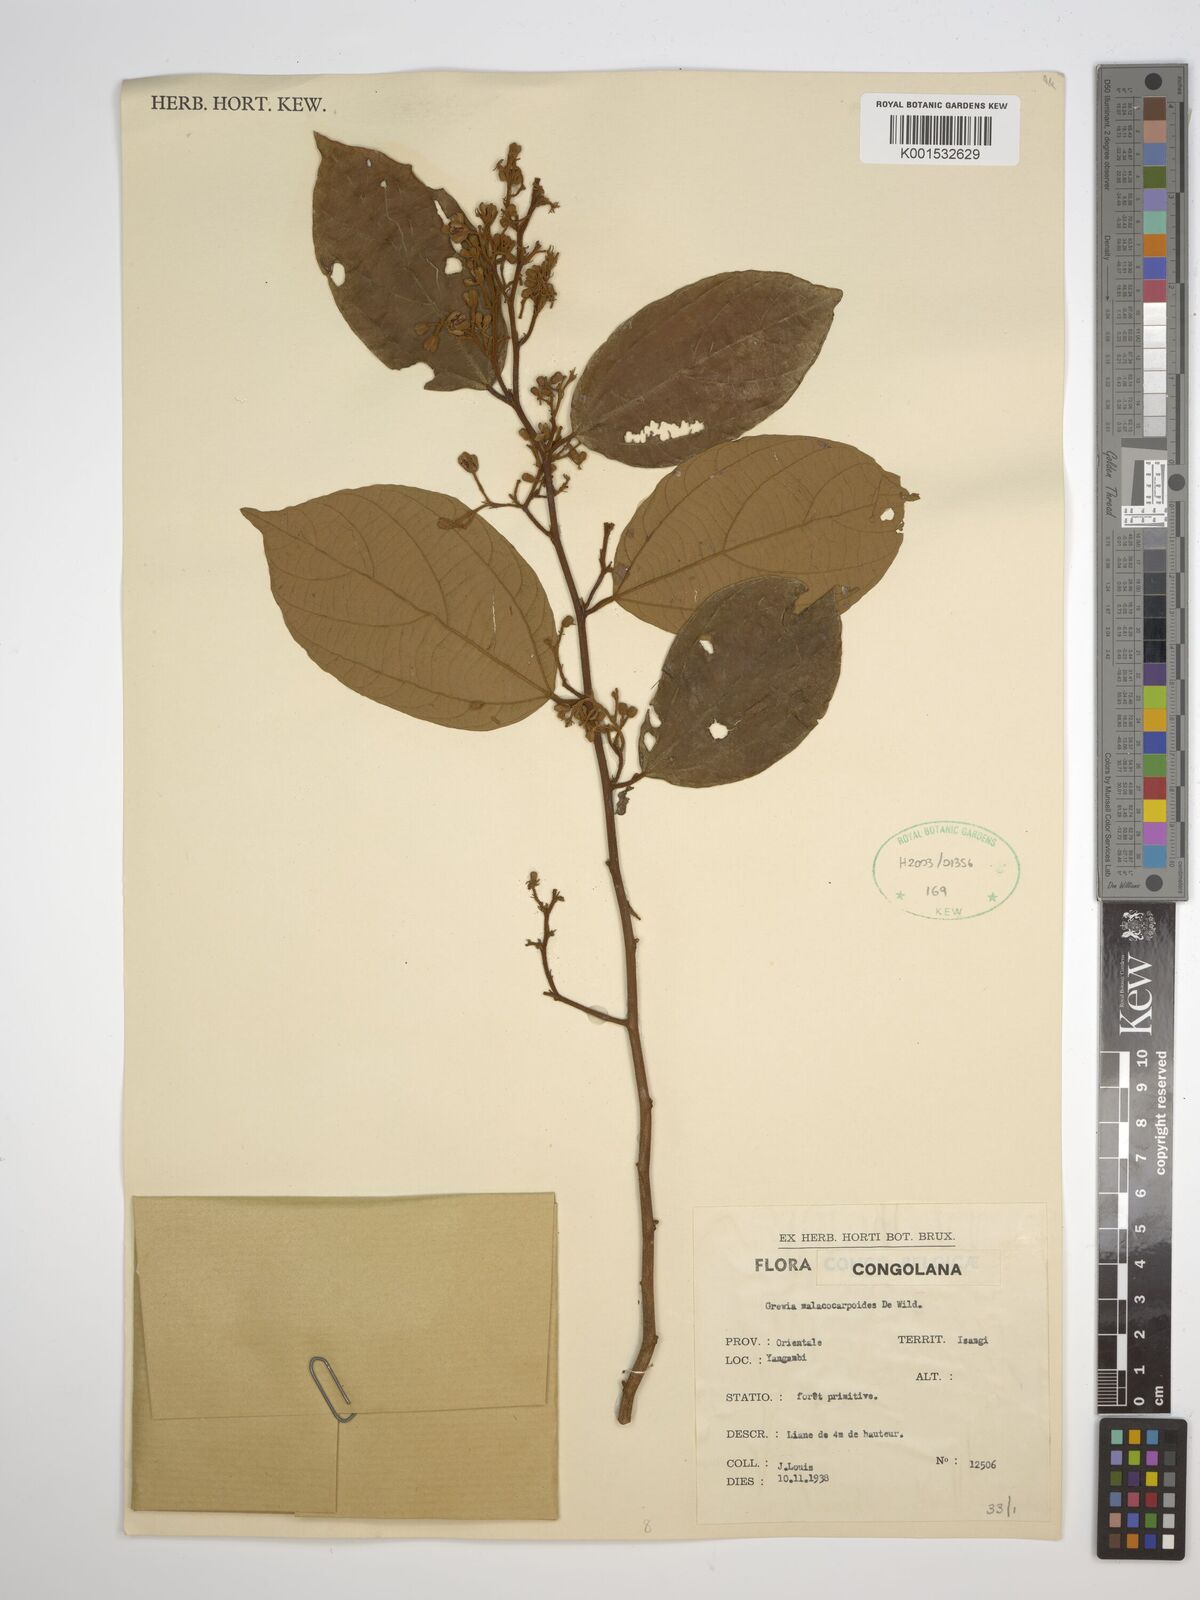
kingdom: Plantae
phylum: Tracheophyta
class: Magnoliopsida
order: Malvales
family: Malvaceae
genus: Microcos
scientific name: Microcos malacocarpa
